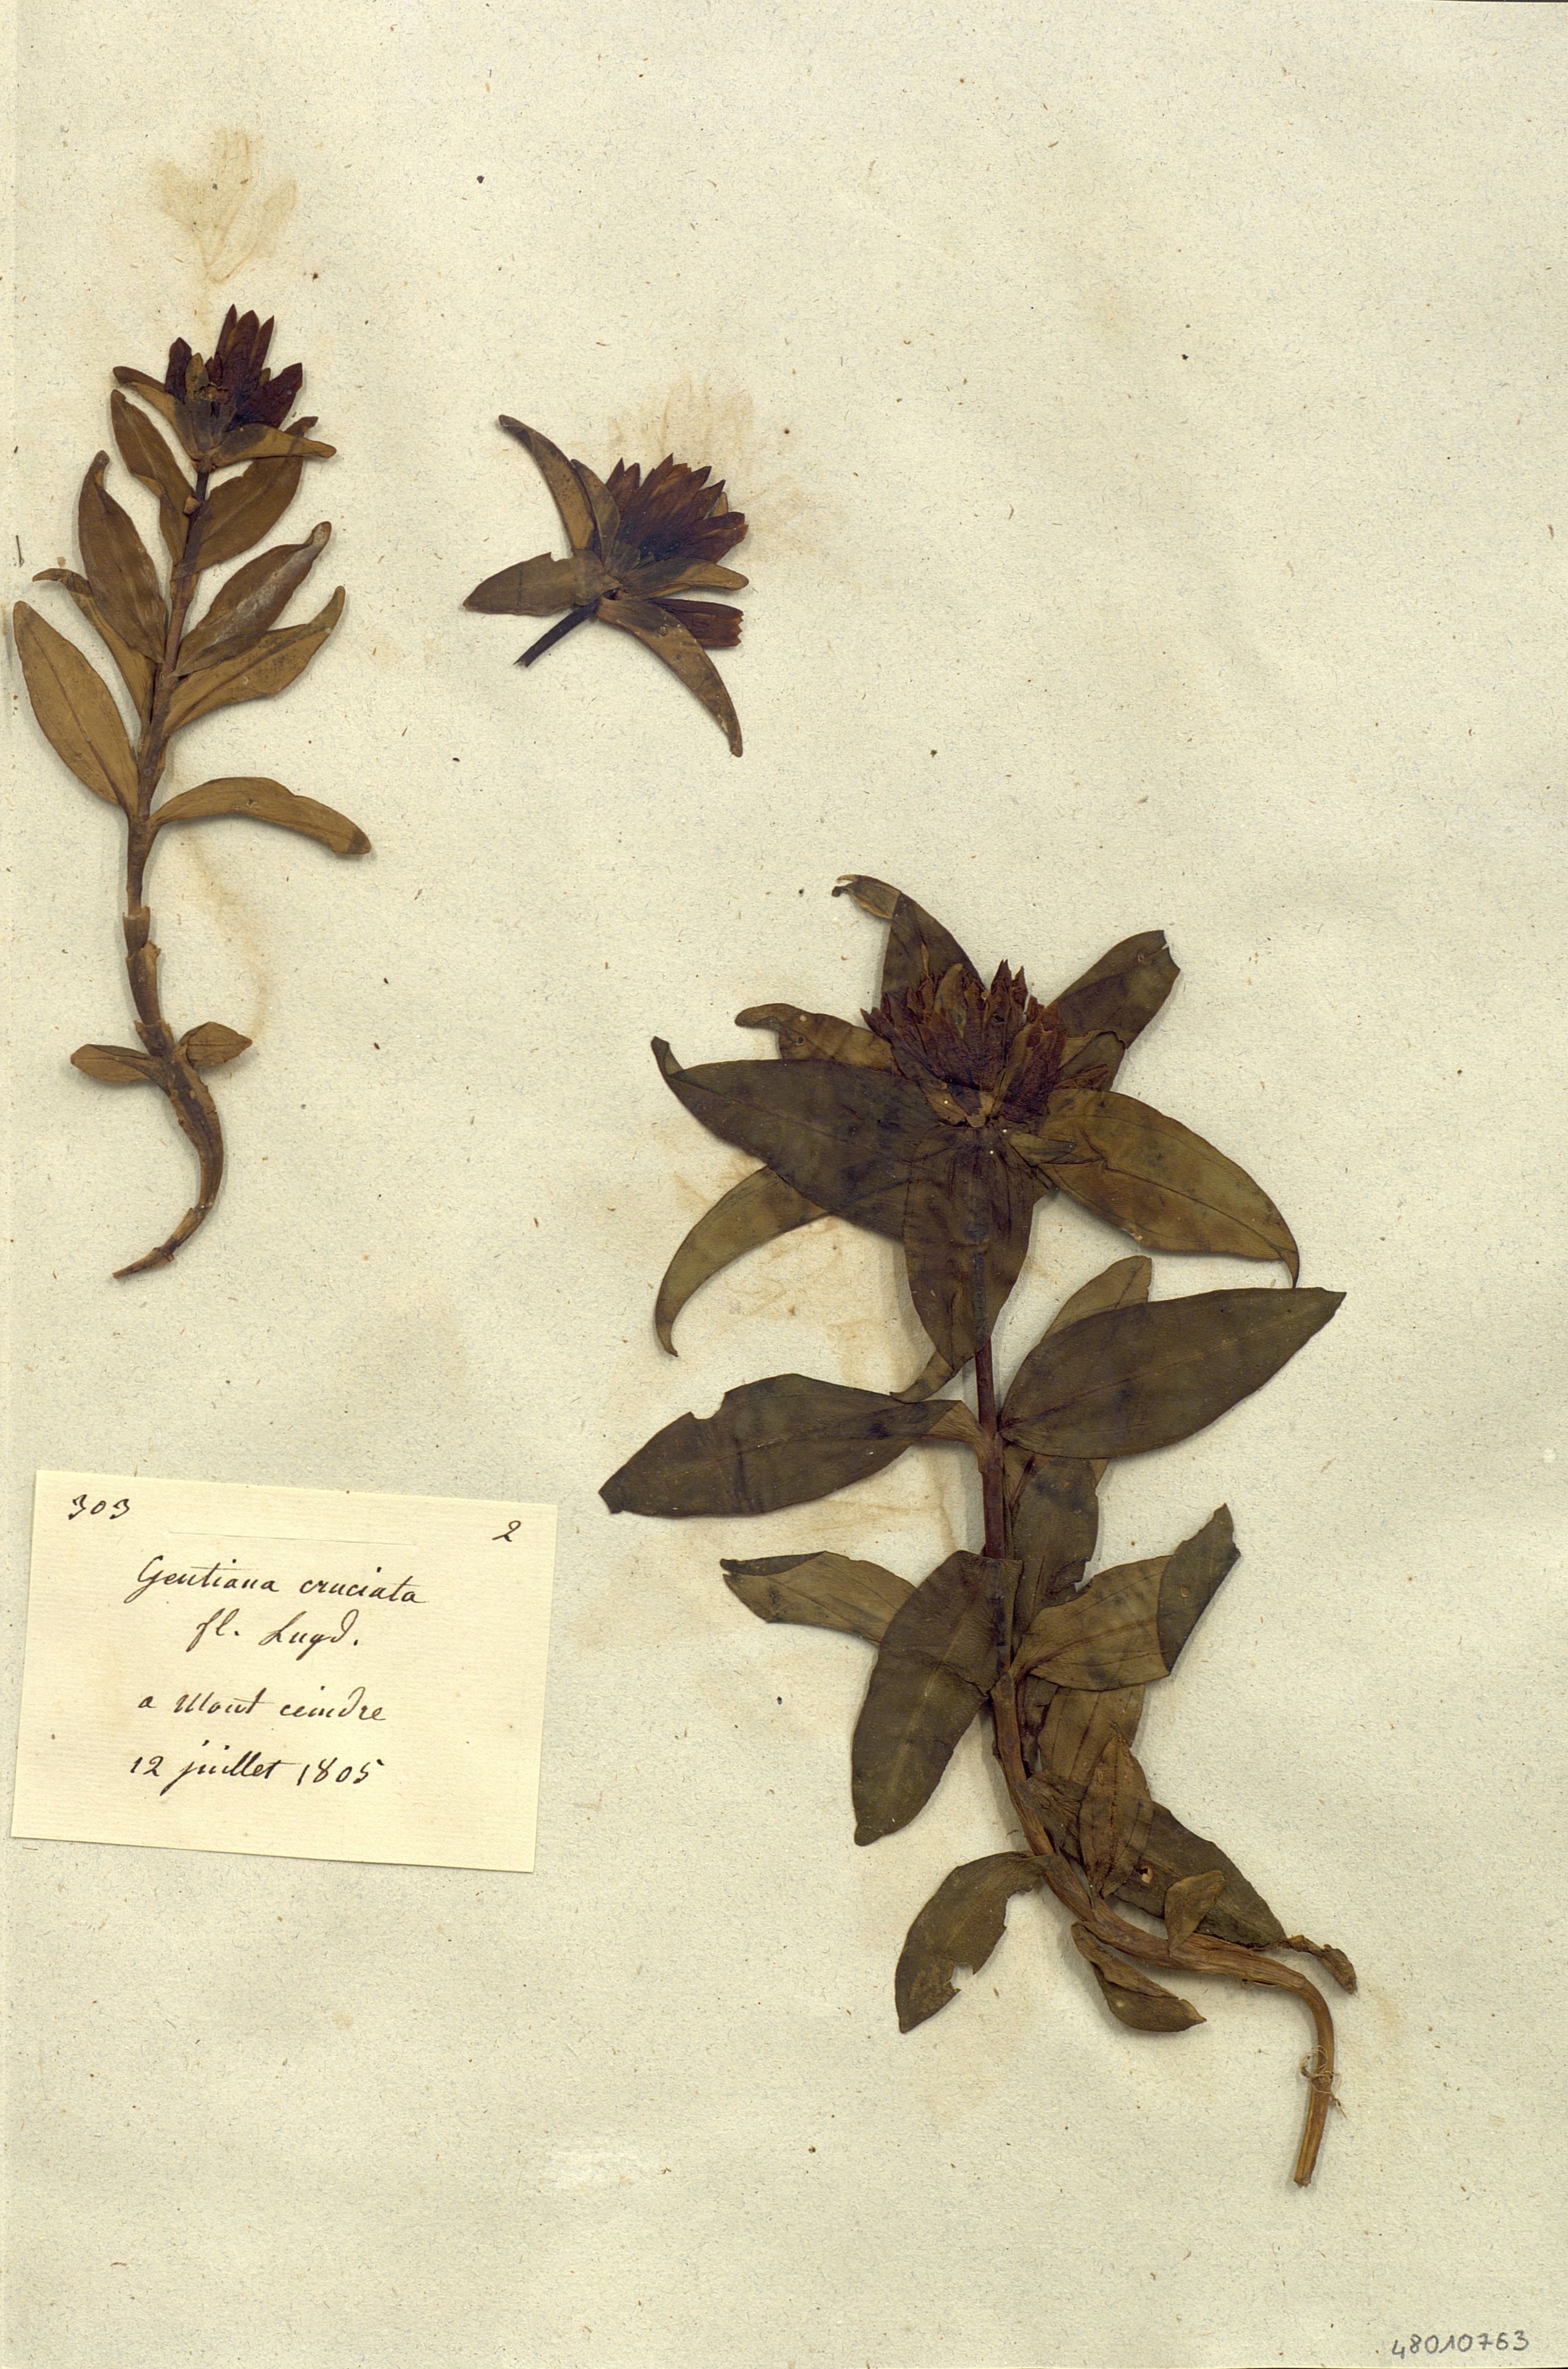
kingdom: Plantae
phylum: Tracheophyta
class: Magnoliopsida
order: Gentianales
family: Gentianaceae
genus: Gentiana
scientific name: Gentiana cruciata
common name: Cross gentian
